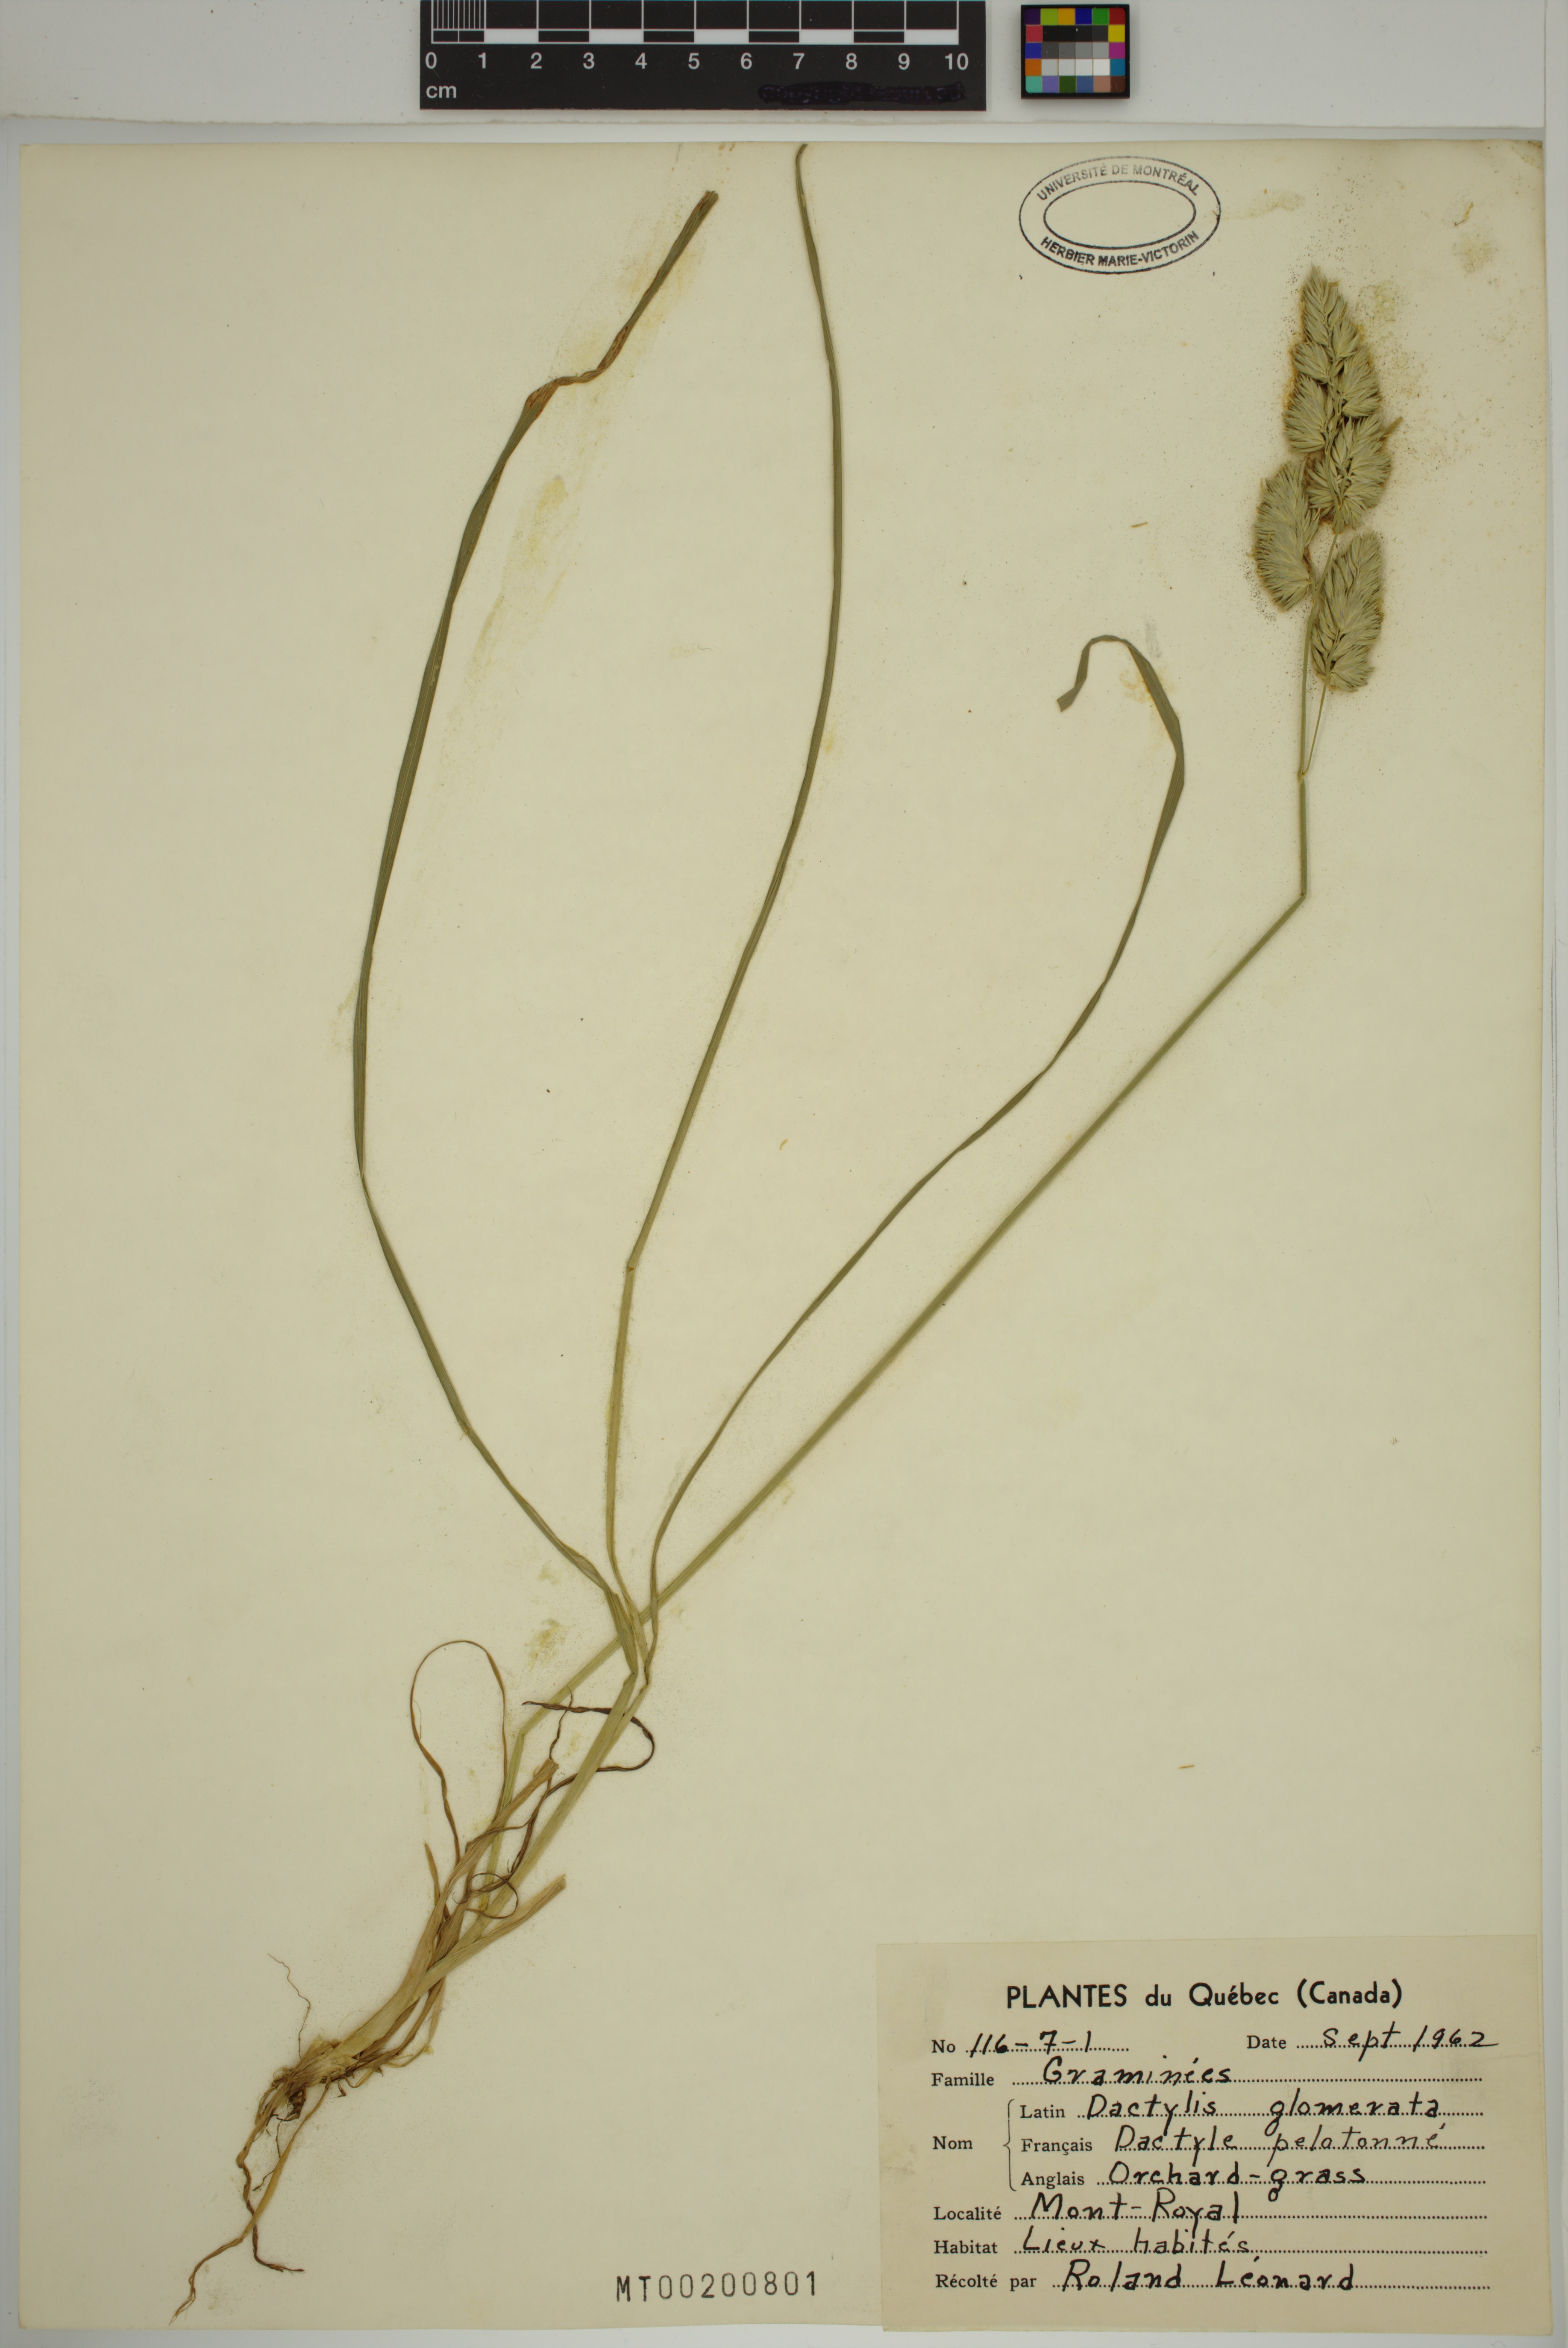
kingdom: Plantae
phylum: Tracheophyta
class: Liliopsida
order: Poales
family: Poaceae
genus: Dactylis
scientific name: Dactylis glomerata
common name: Orchardgrass
